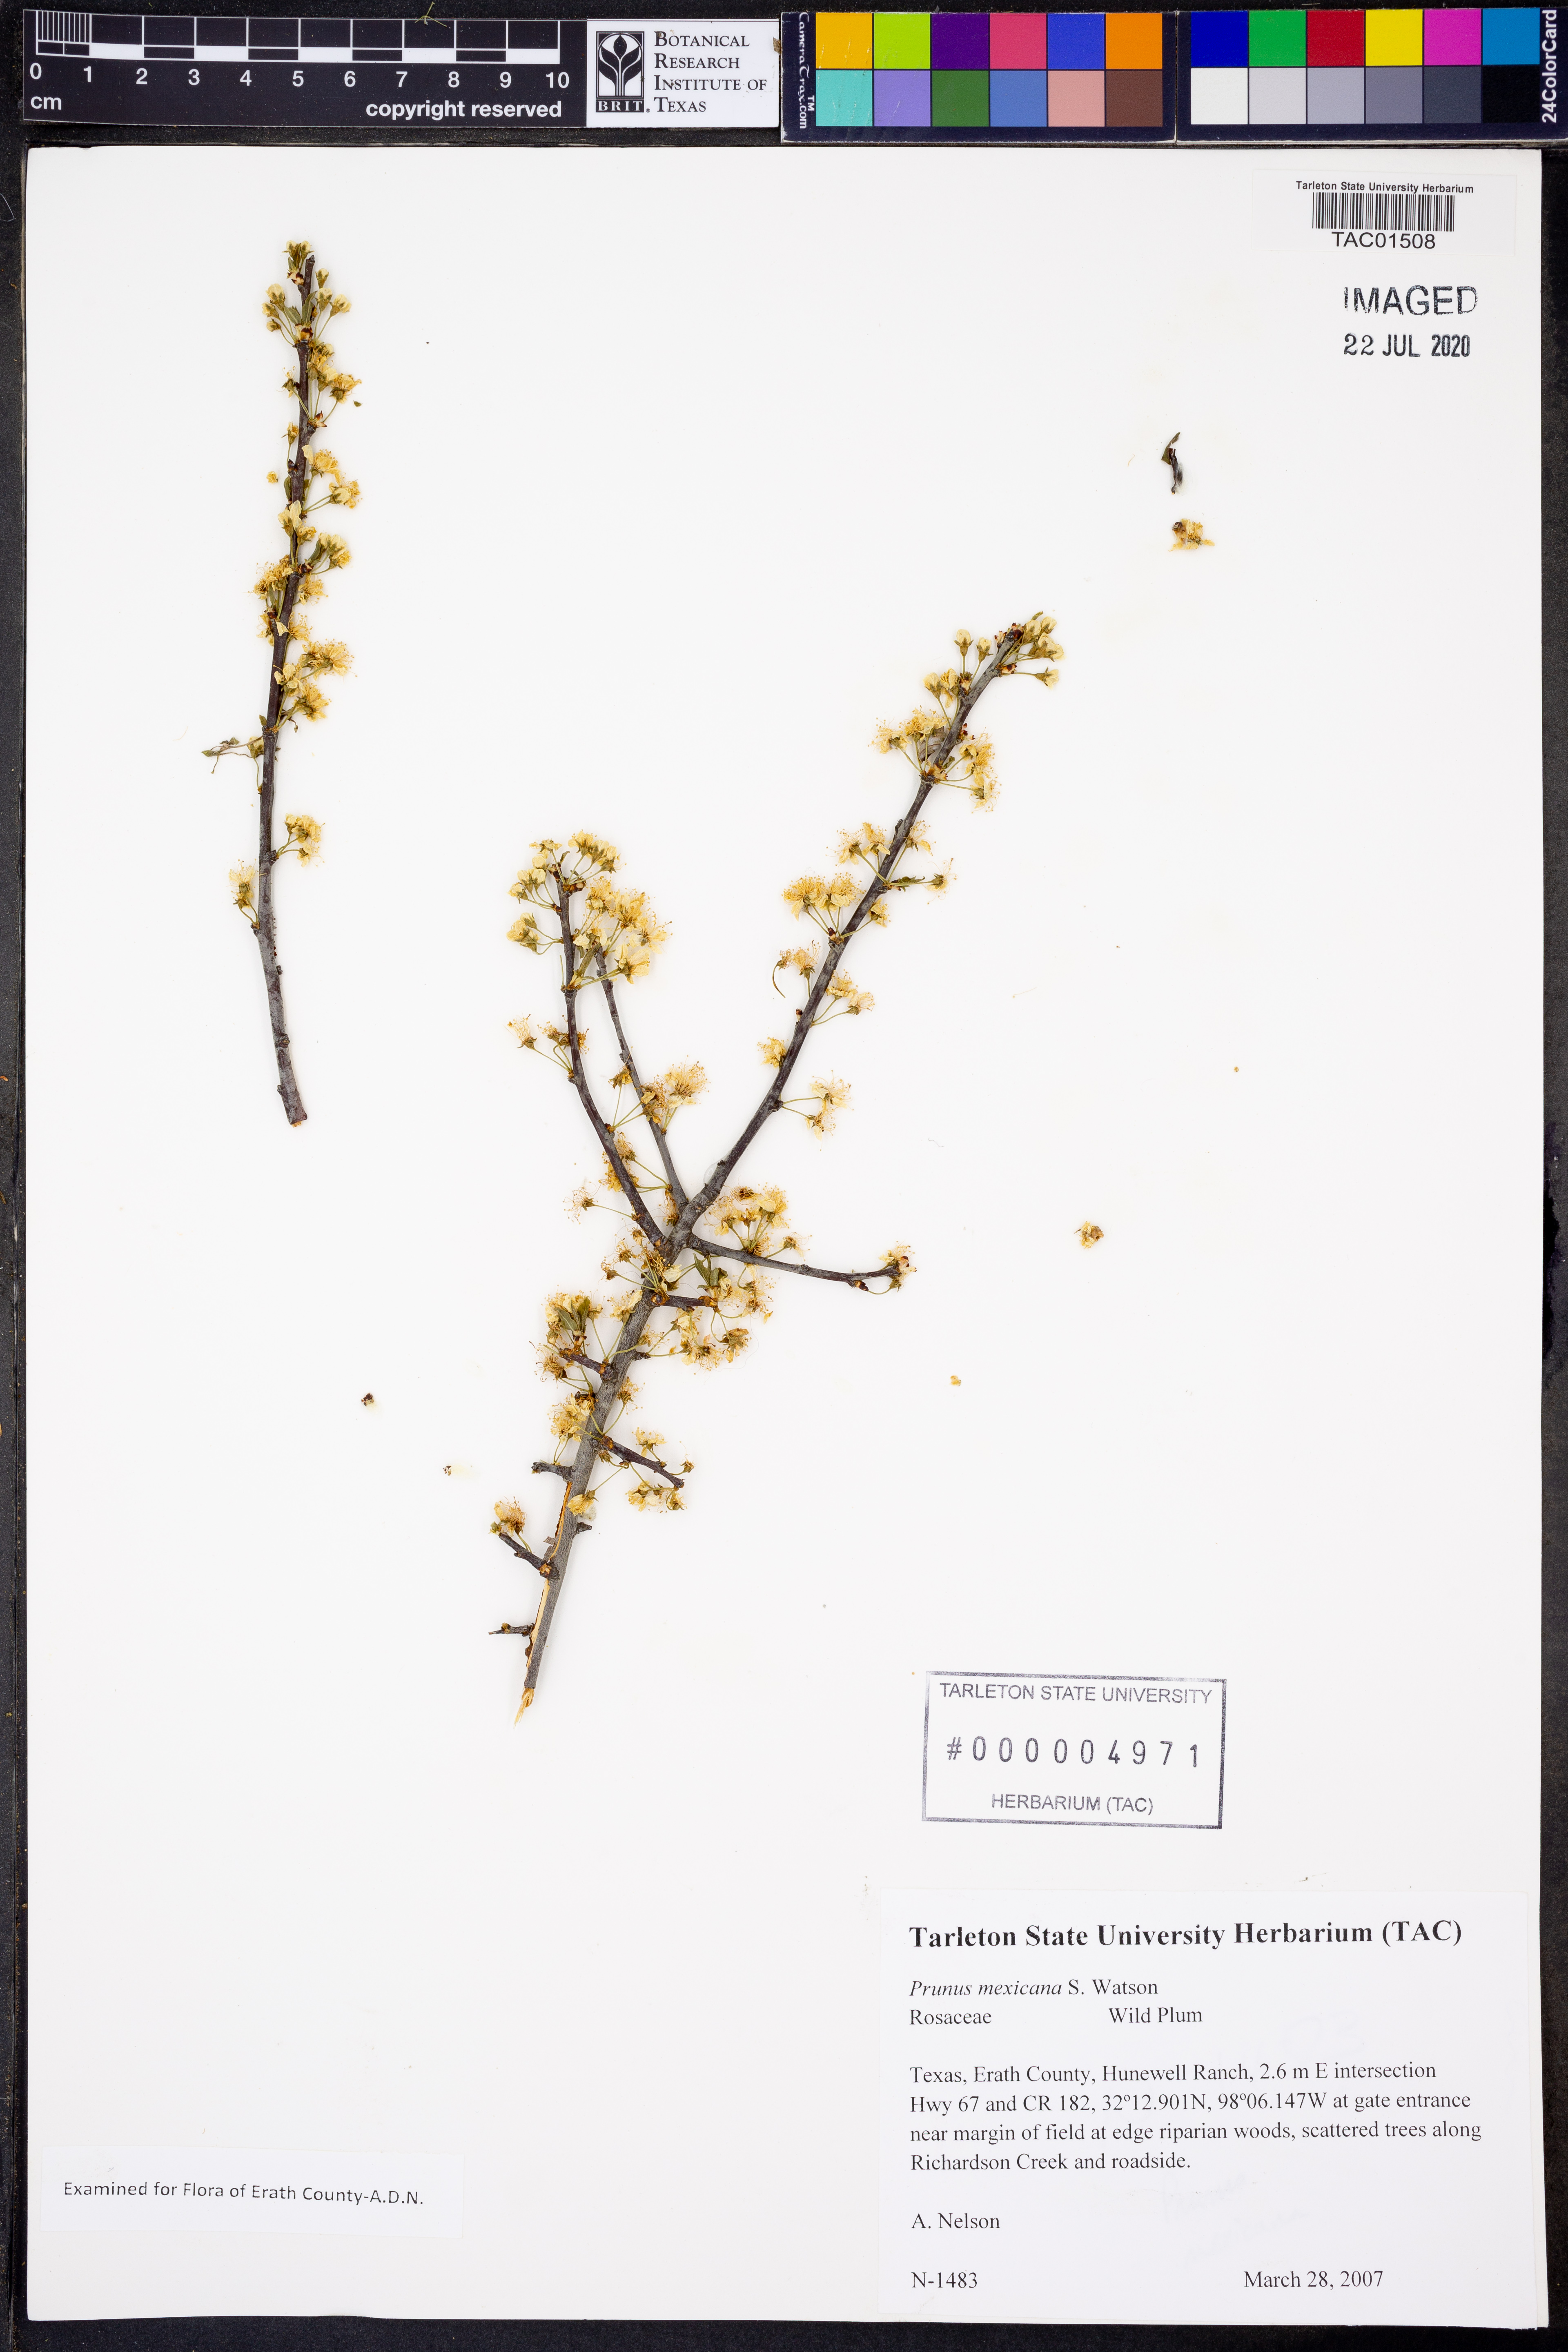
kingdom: Plantae
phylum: Tracheophyta
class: Magnoliopsida
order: Rosales
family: Rosaceae
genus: Prunus
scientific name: Prunus americana
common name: American plum
